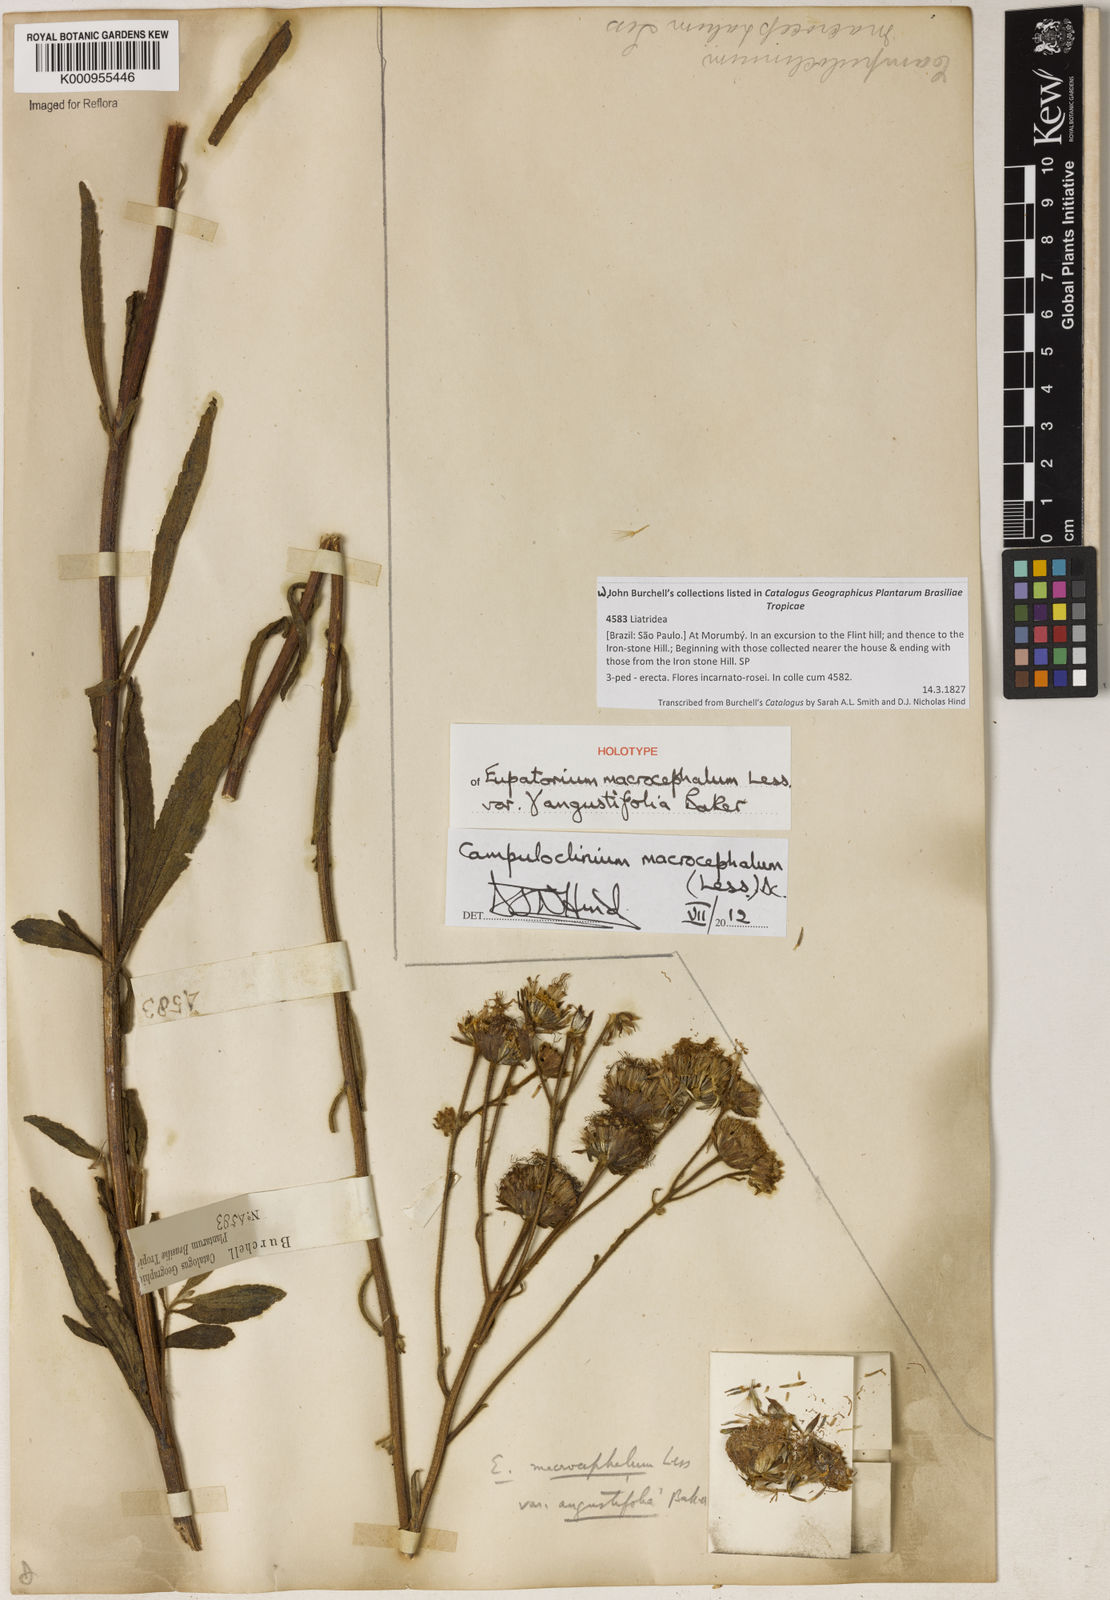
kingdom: Plantae
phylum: Tracheophyta
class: Magnoliopsida
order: Asterales
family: Asteraceae
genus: Campuloclinium
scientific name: Campuloclinium macrocephalum
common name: Pompomweed
